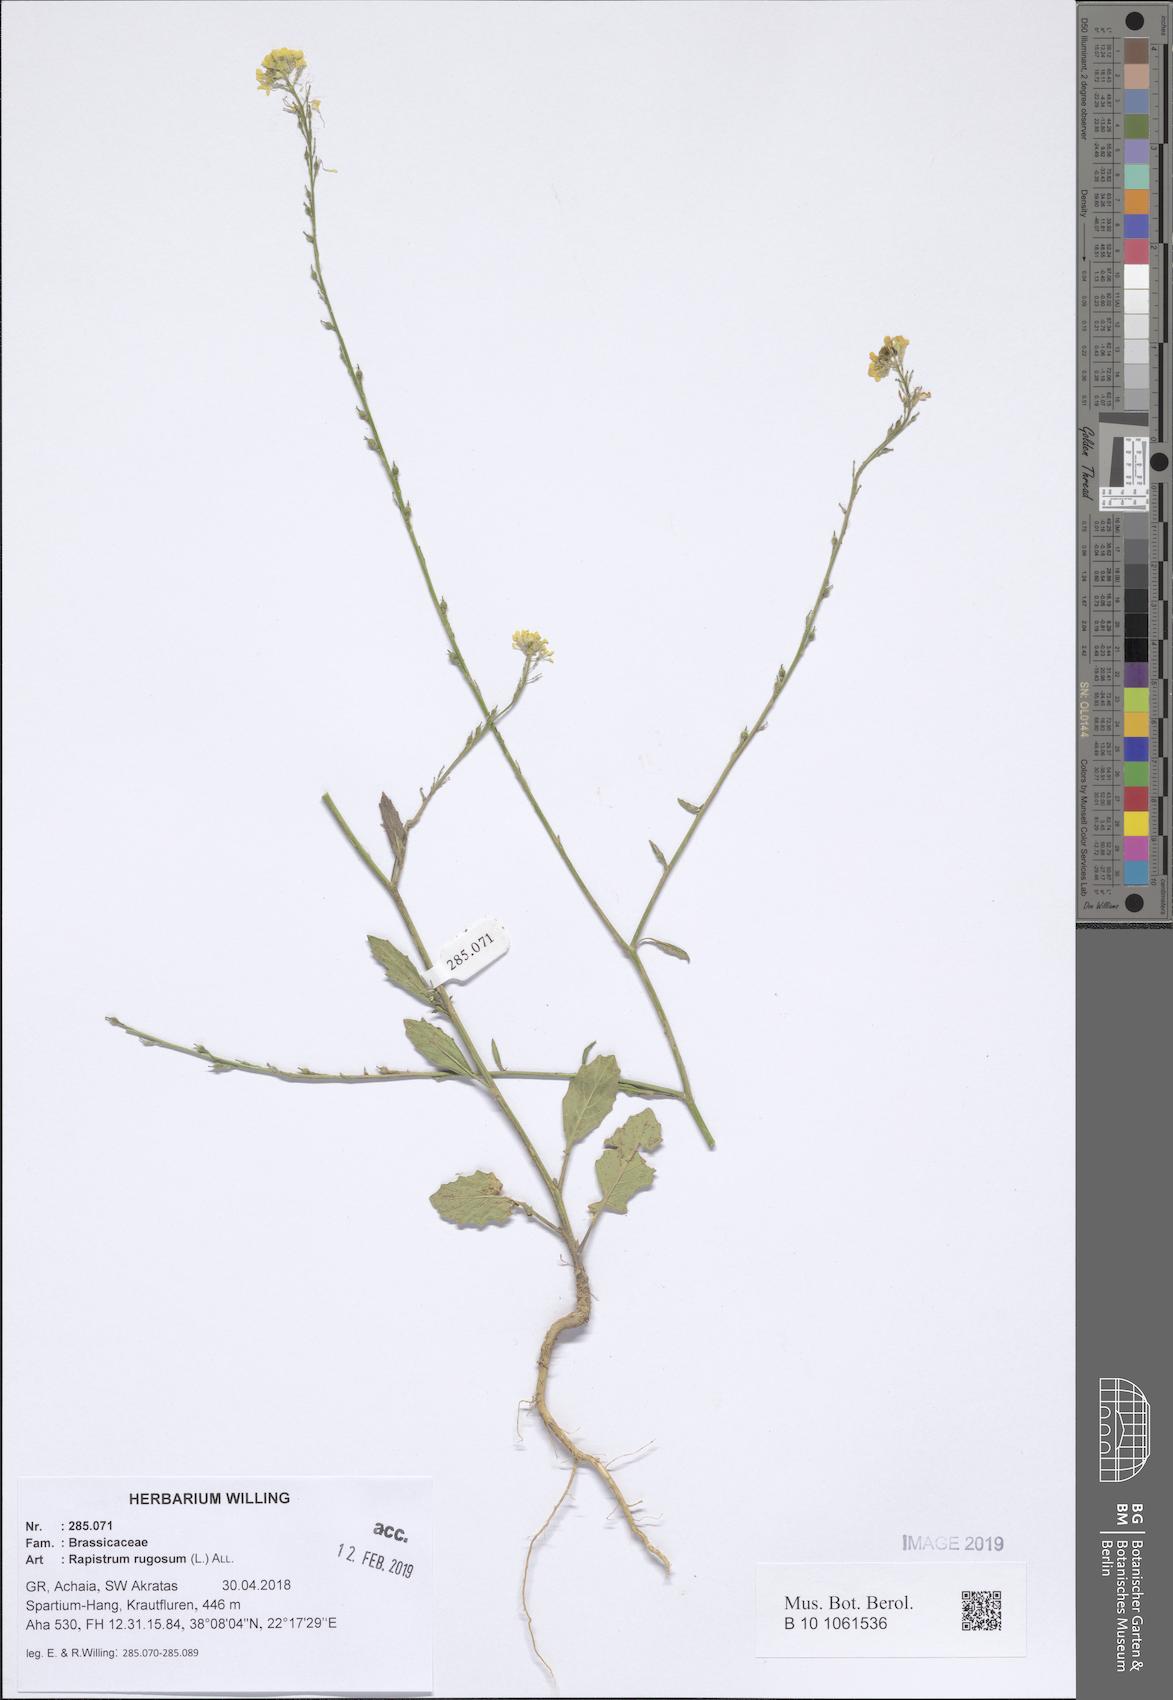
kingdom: Plantae
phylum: Tracheophyta
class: Magnoliopsida
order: Brassicales
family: Brassicaceae
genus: Rapistrum
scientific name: Rapistrum rugosum
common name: Annual bastardcabbage
